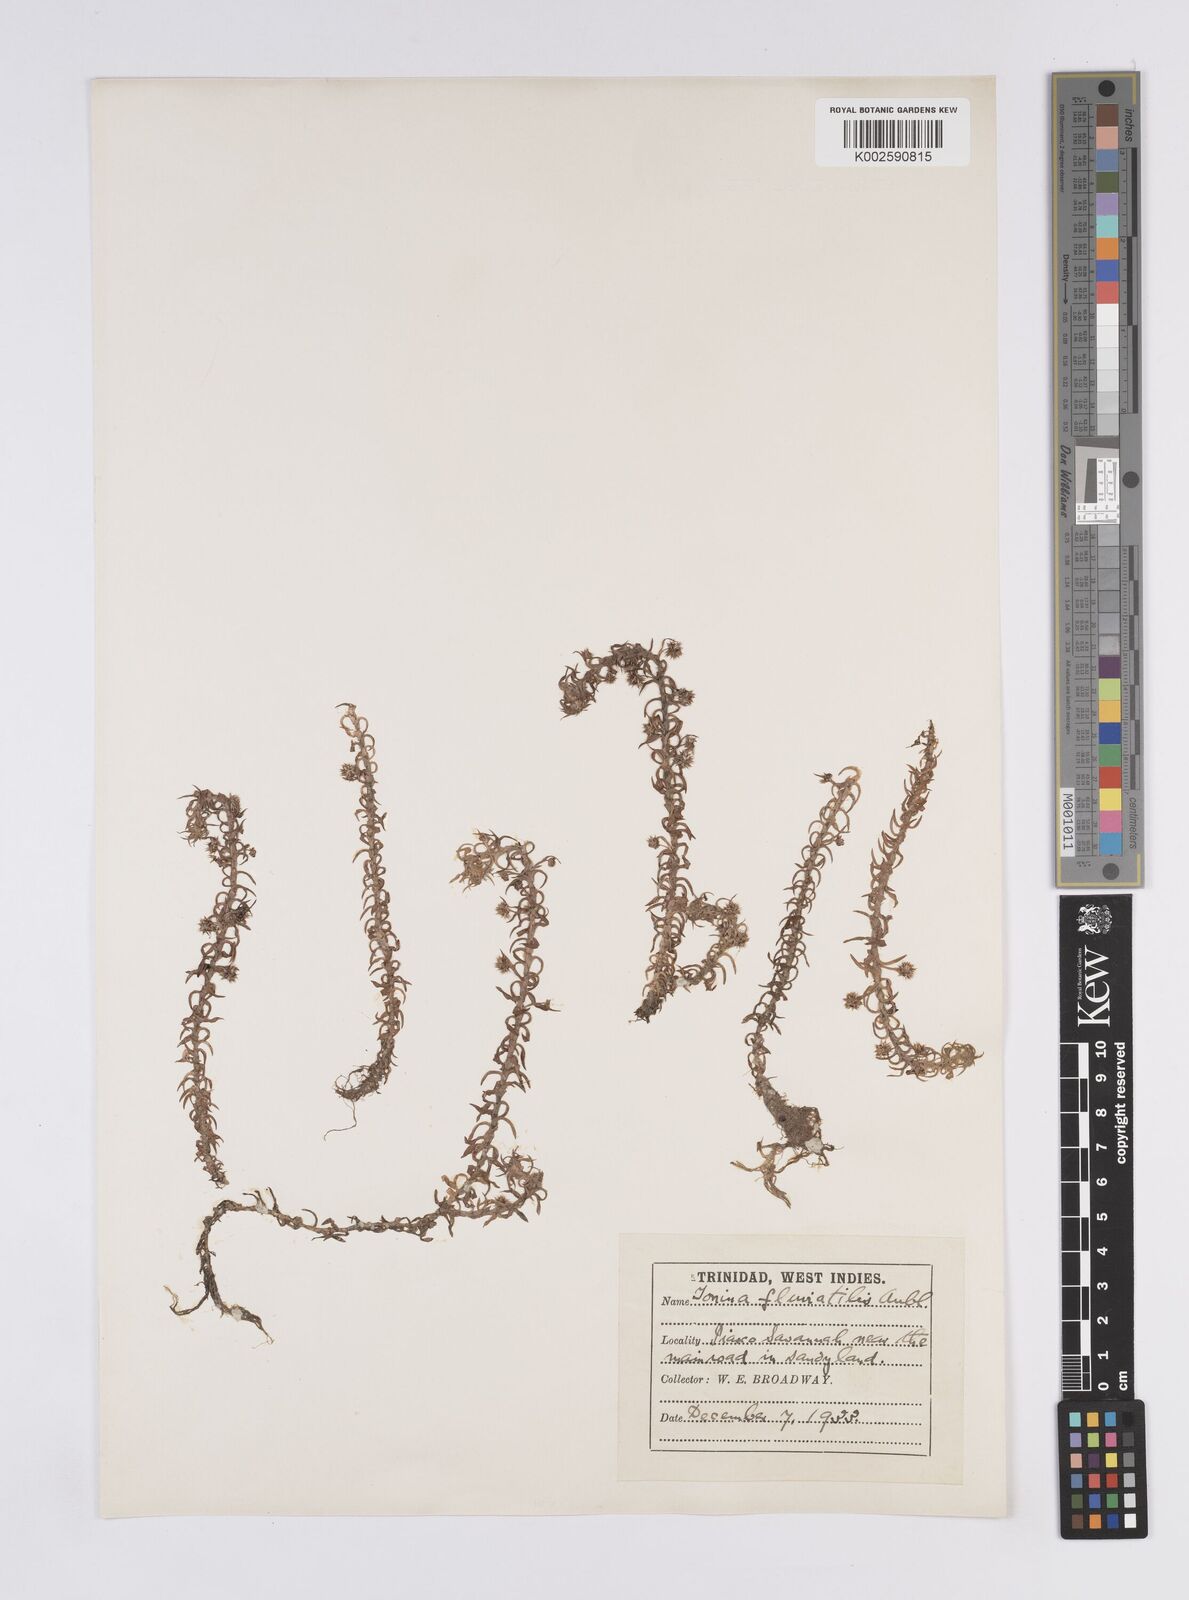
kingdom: Plantae
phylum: Tracheophyta
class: Liliopsida
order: Poales
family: Eriocaulaceae
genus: Paepalanthus
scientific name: Paepalanthus fluviatilis
